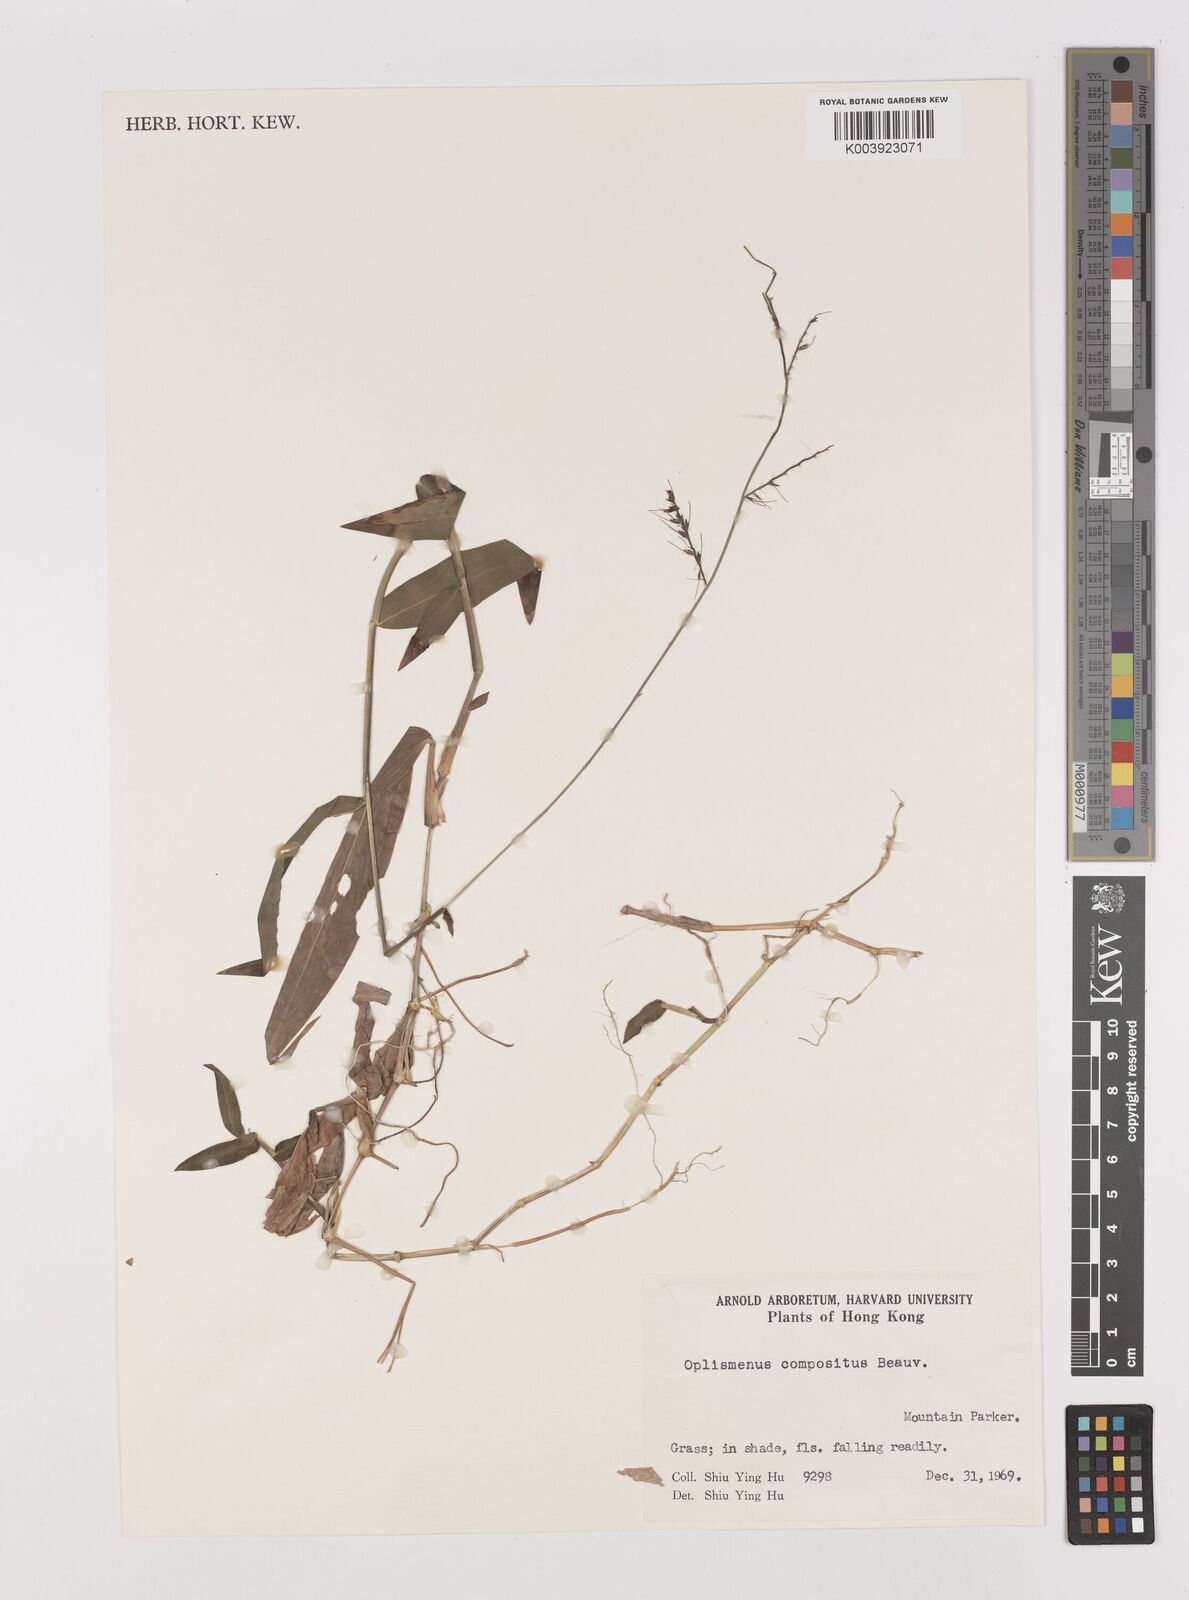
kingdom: Plantae
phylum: Tracheophyta
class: Liliopsida
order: Poales
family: Poaceae
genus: Oplismenus
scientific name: Oplismenus compositus
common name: Running mountain grass
